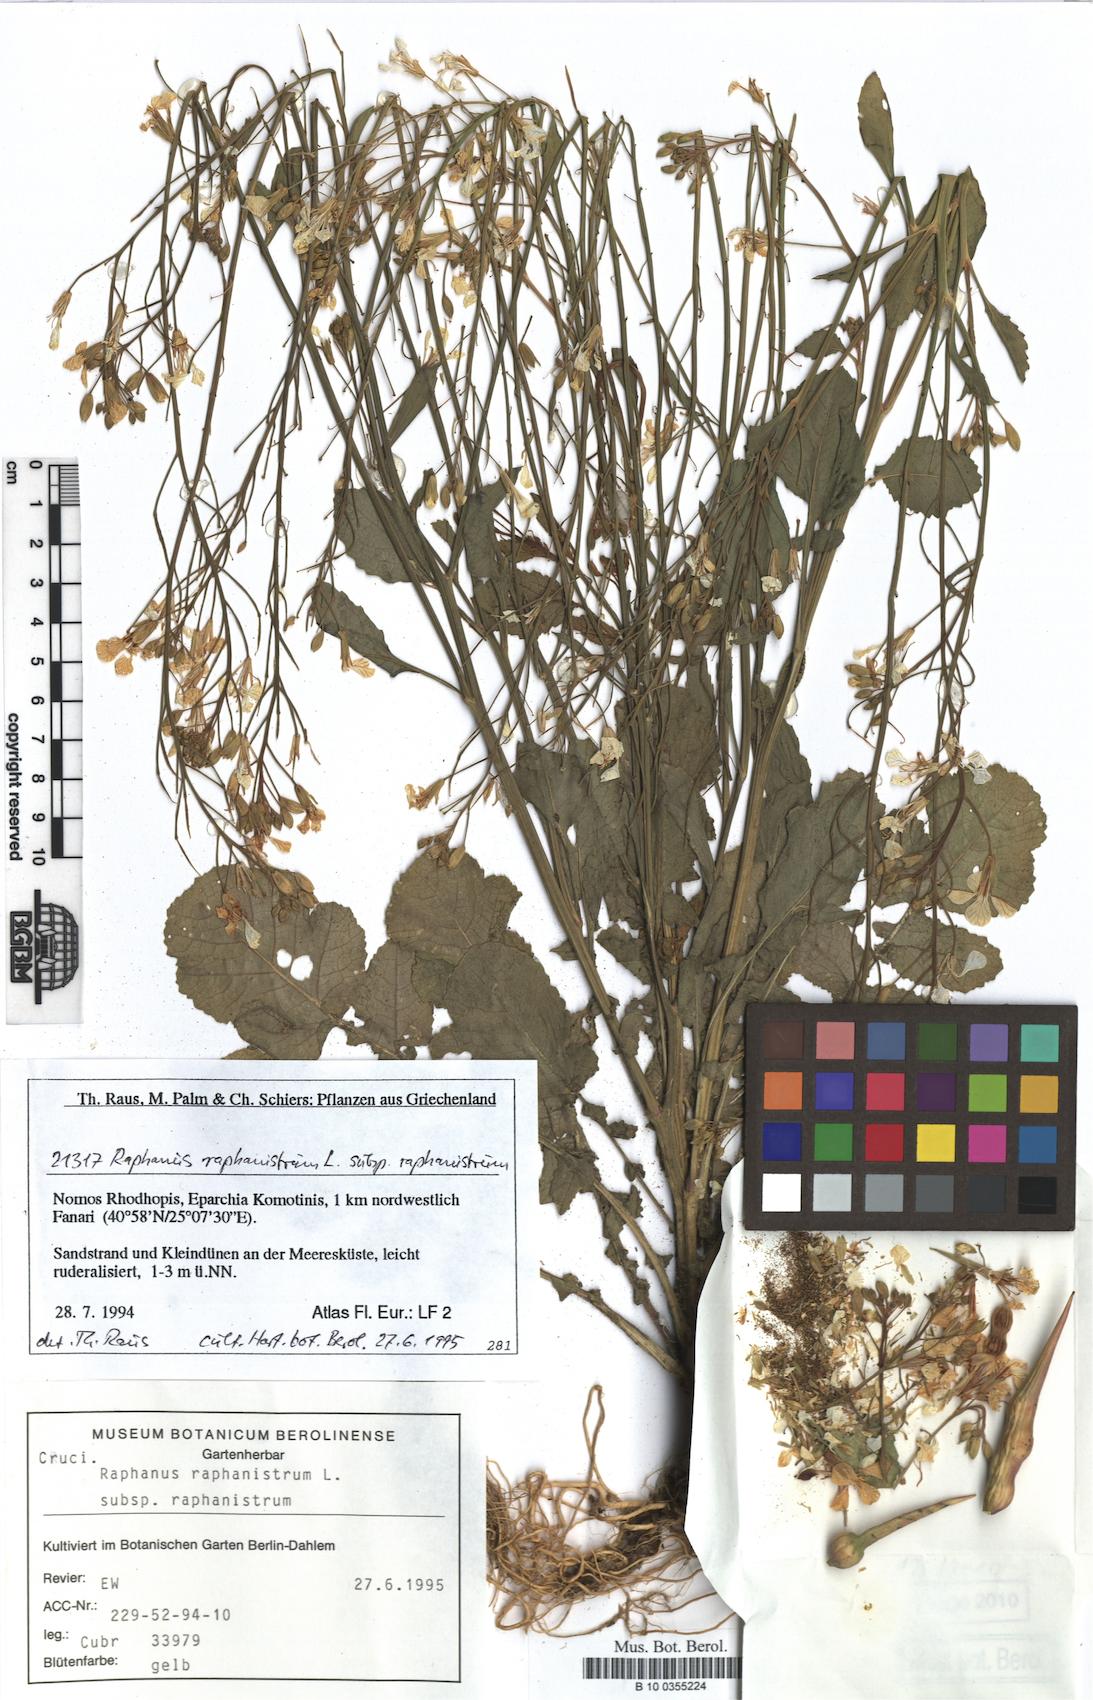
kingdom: Plantae
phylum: Tracheophyta
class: Magnoliopsida
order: Brassicales
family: Brassicaceae
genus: Raphanus
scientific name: Raphanus raphanistrum
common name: Wild radish
